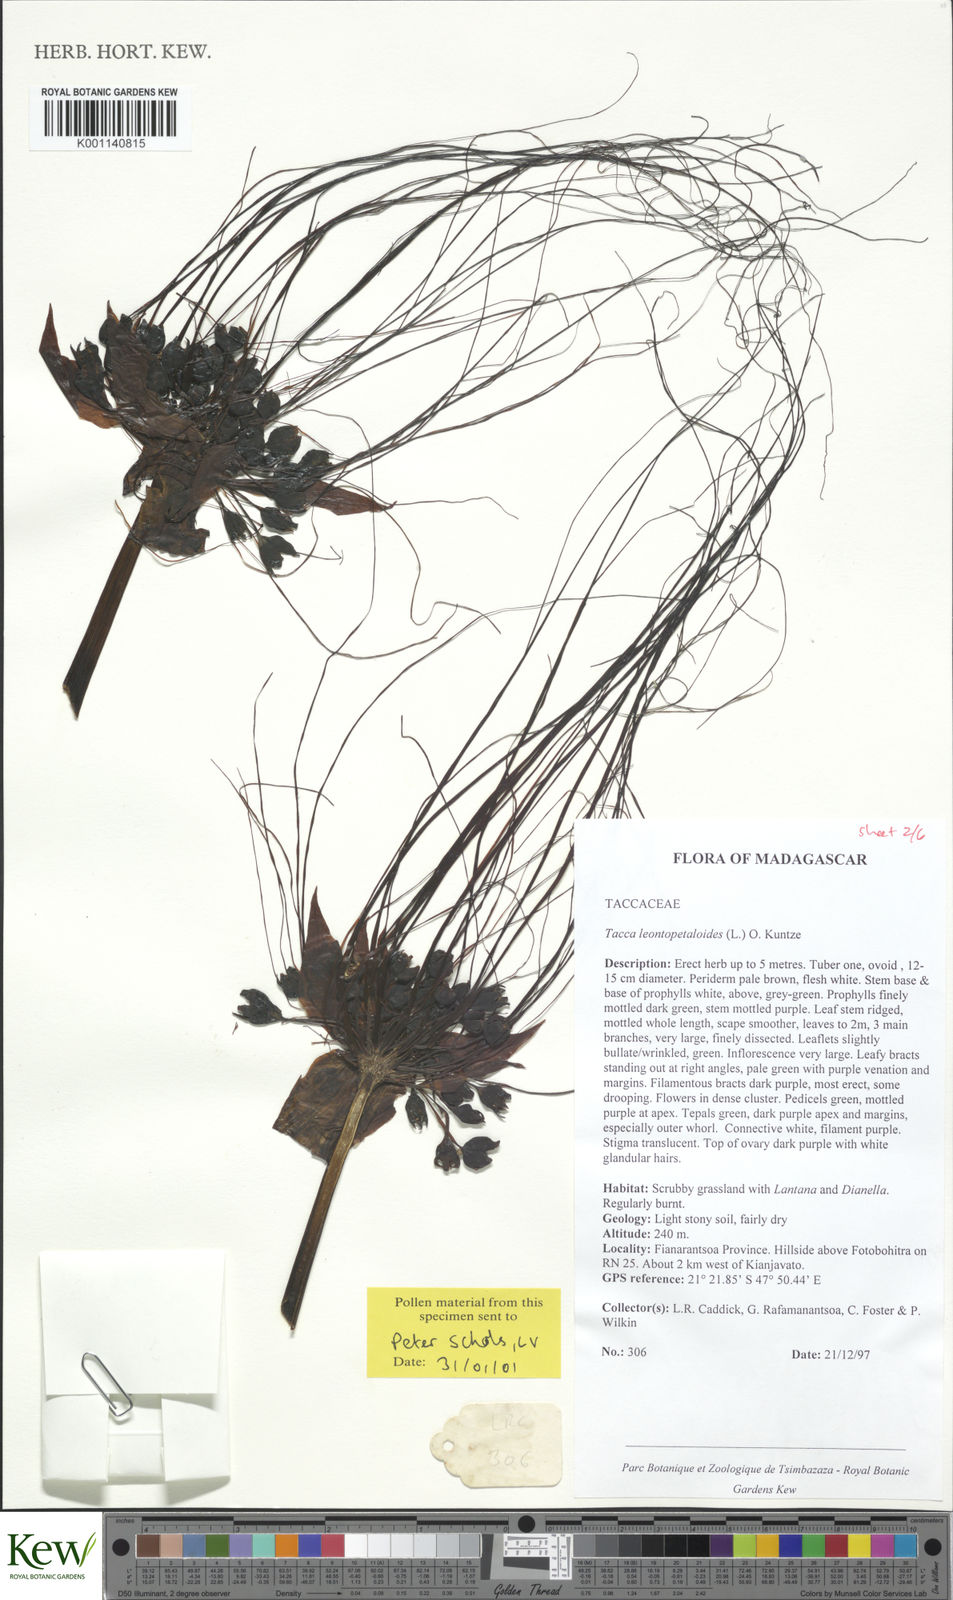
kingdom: Plantae
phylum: Tracheophyta
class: Liliopsida
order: Dioscoreales
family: Dioscoreaceae
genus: Tacca
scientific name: Tacca leontopetaloides
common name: Arrowroot
